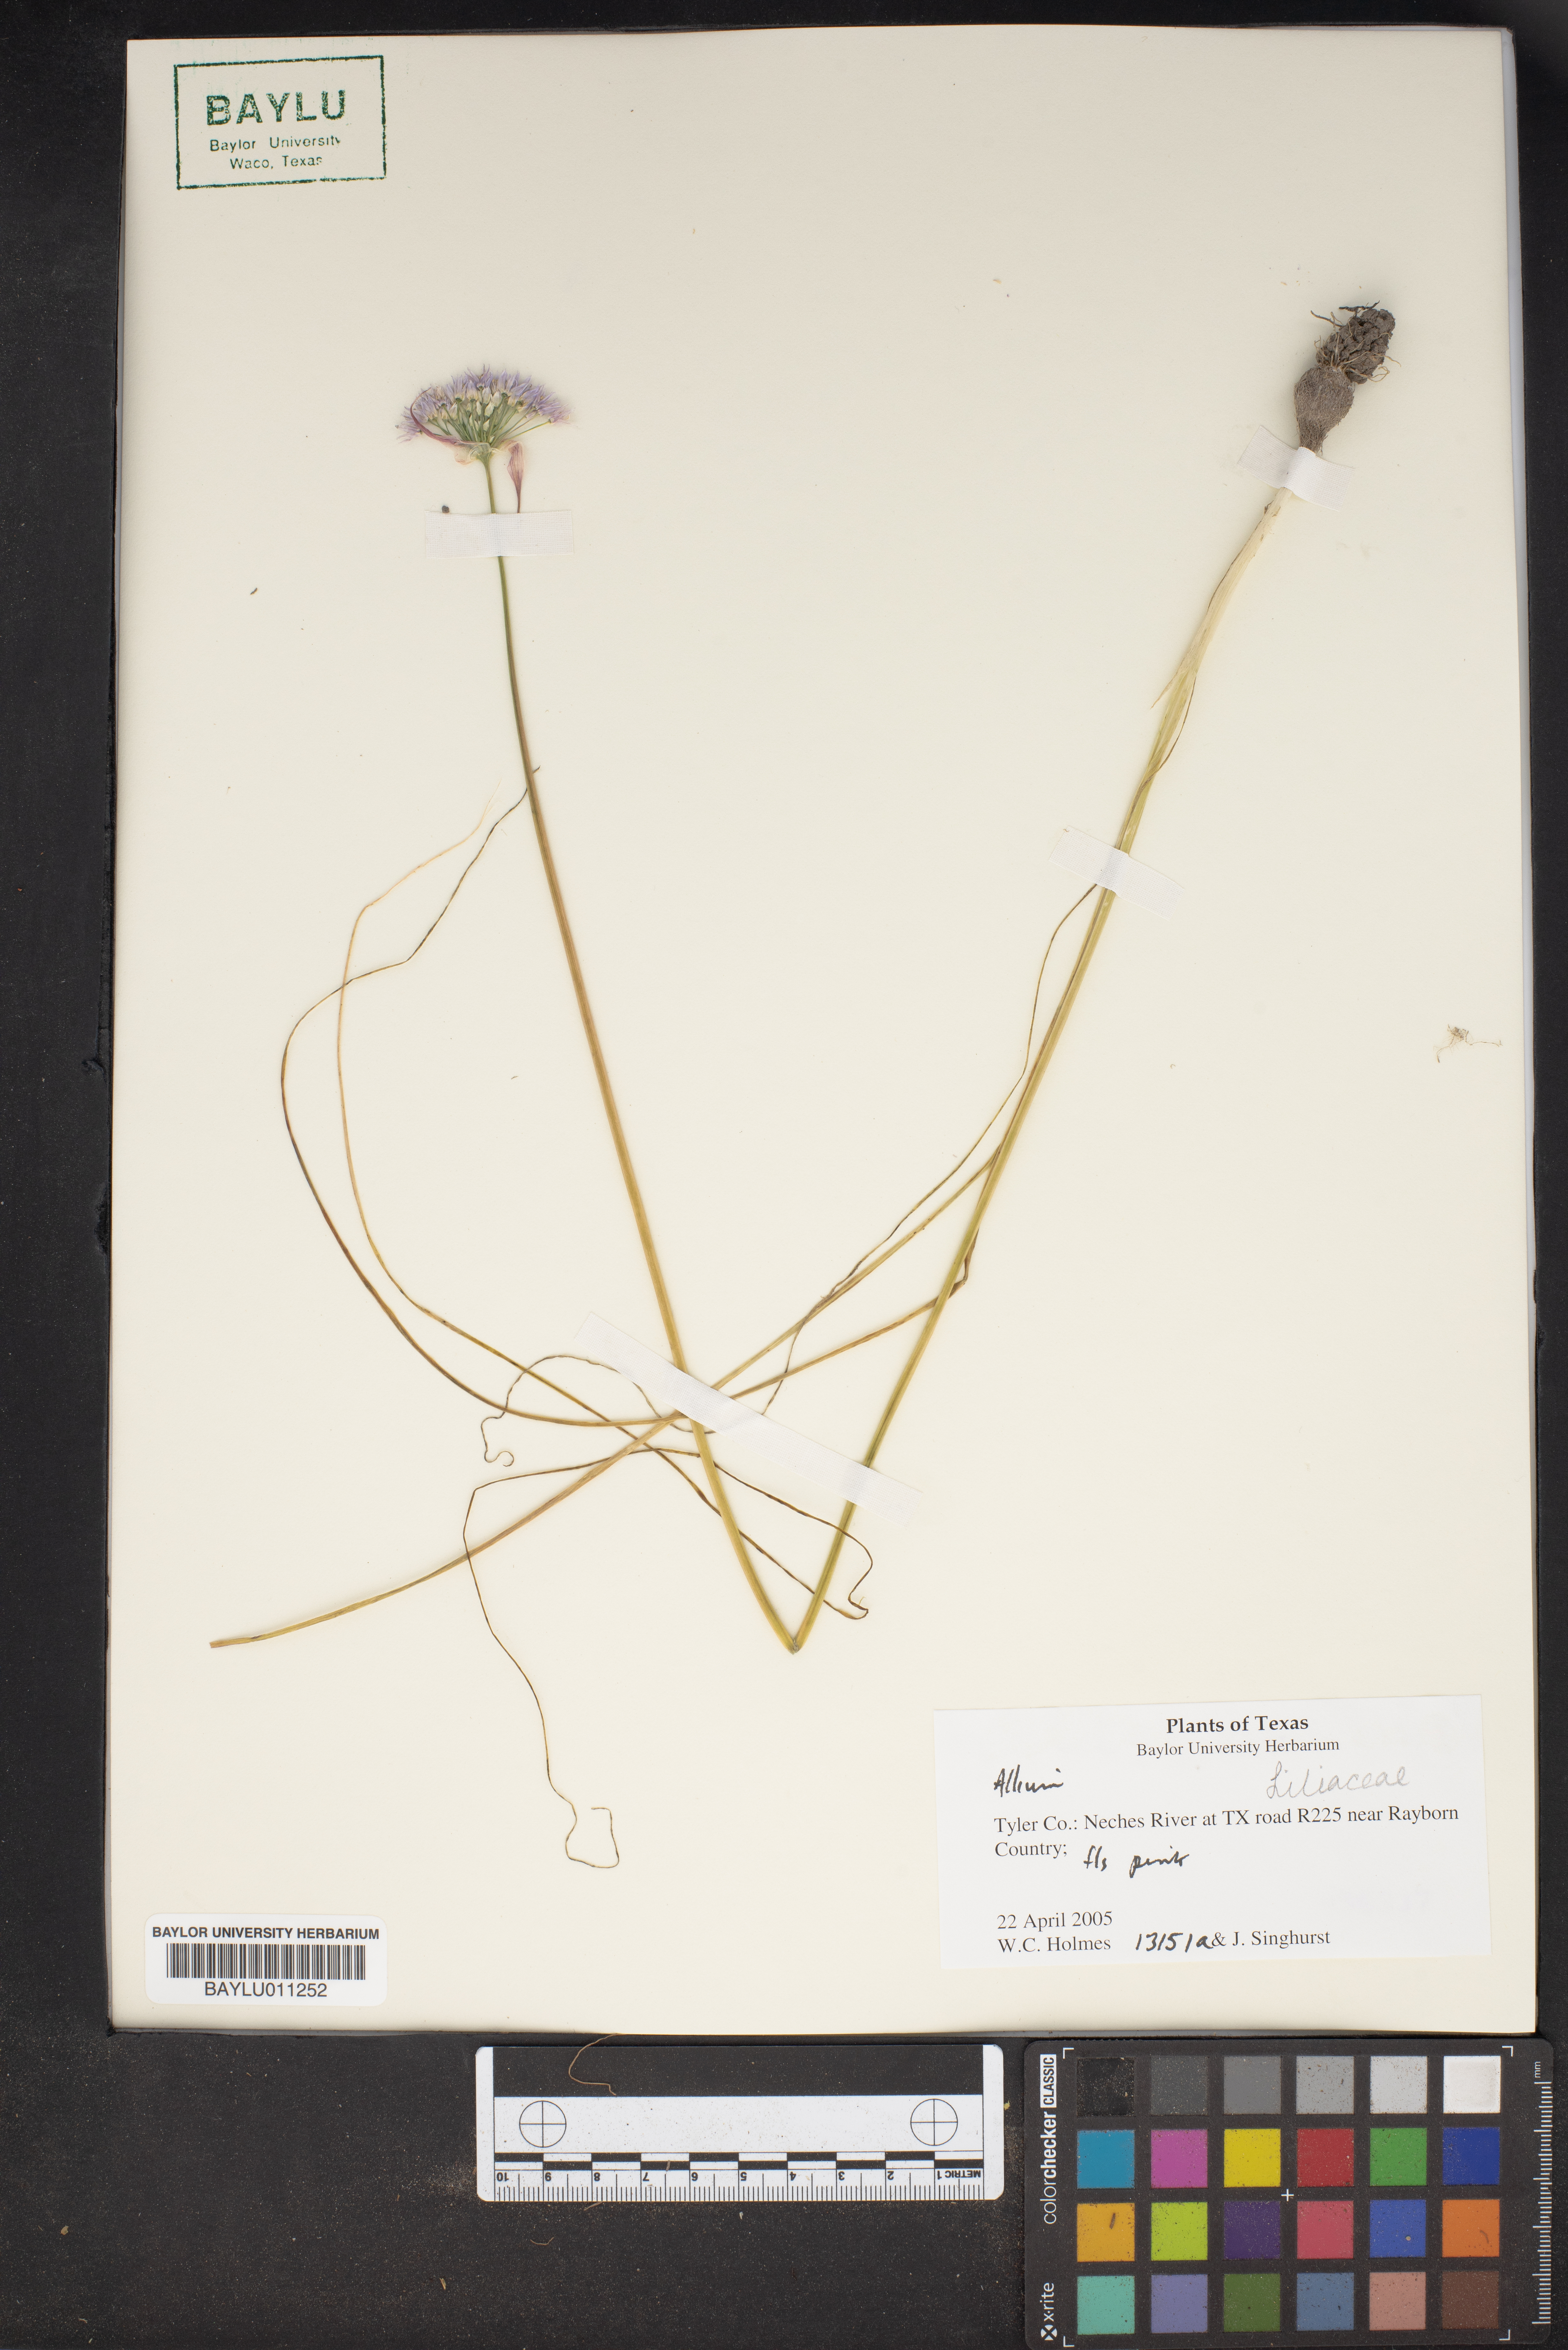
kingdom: Plantae
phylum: Tracheophyta
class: Liliopsida
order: Asparagales
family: Amaryllidaceae
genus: Allium
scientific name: Allium
